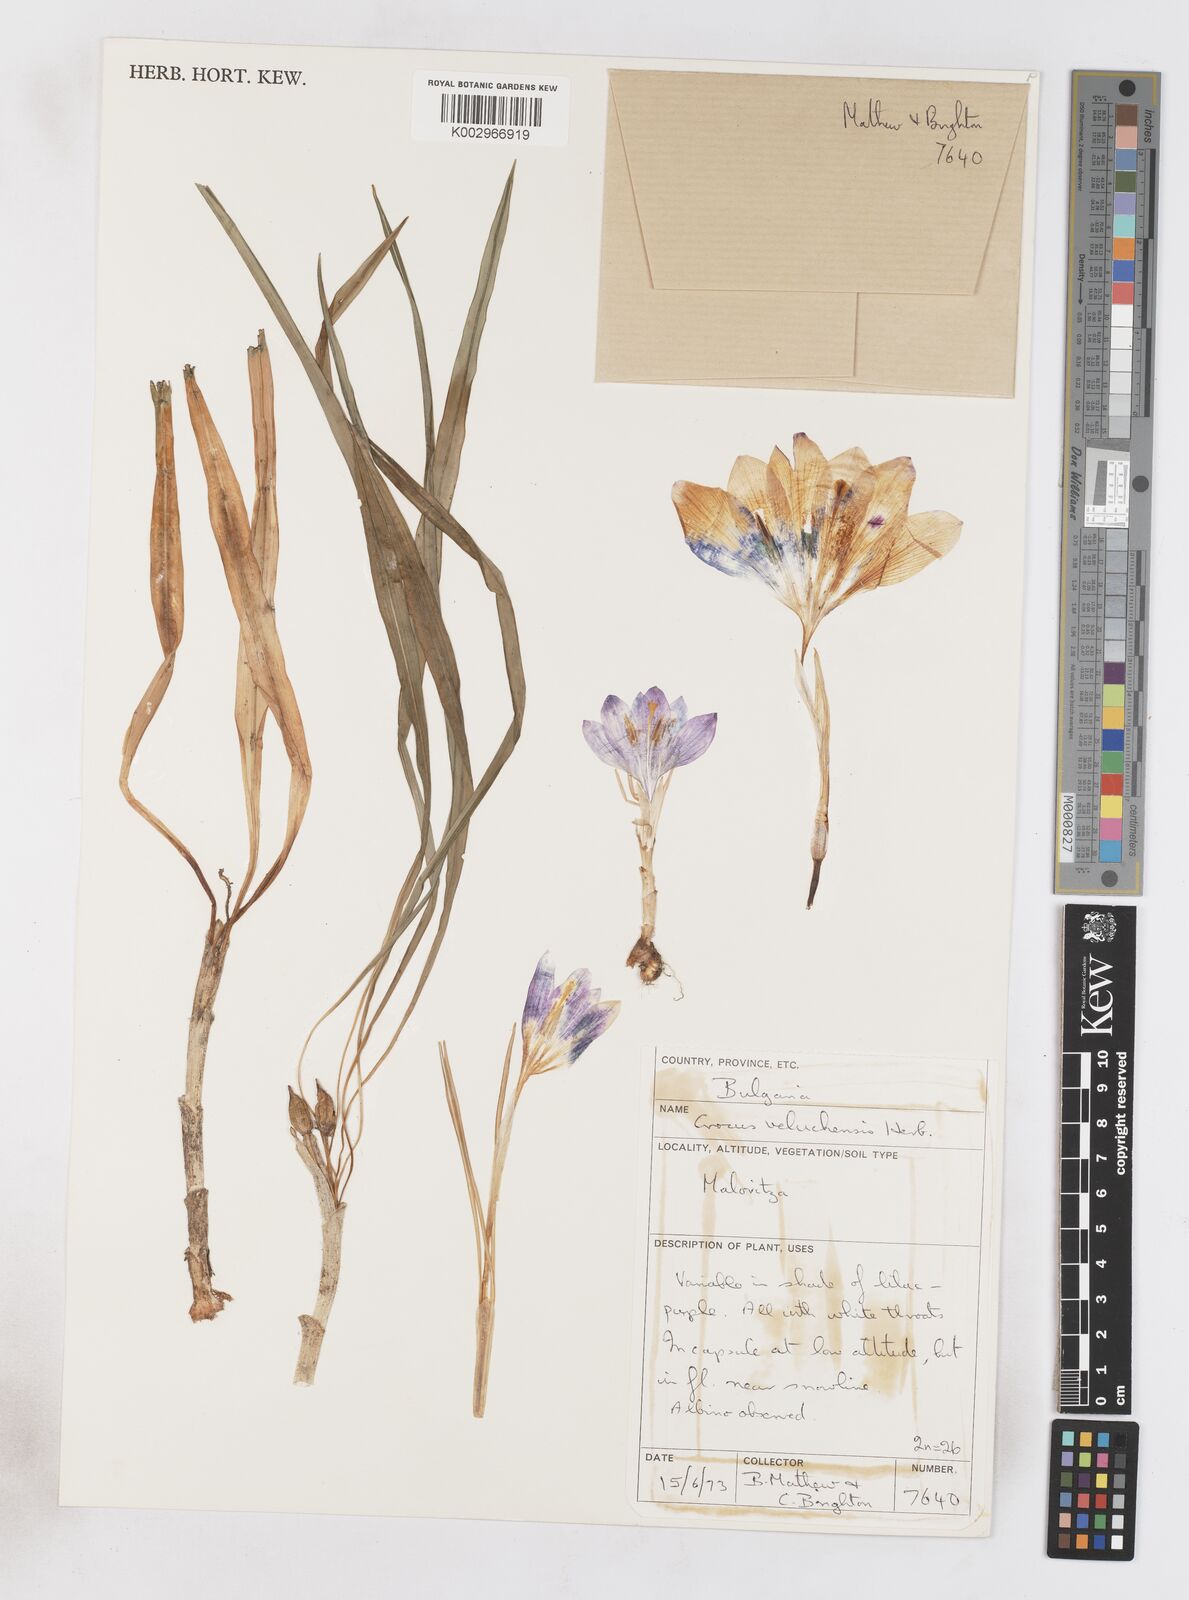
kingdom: Plantae
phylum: Tracheophyta
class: Liliopsida
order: Asparagales
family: Iridaceae
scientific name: Iridaceae
